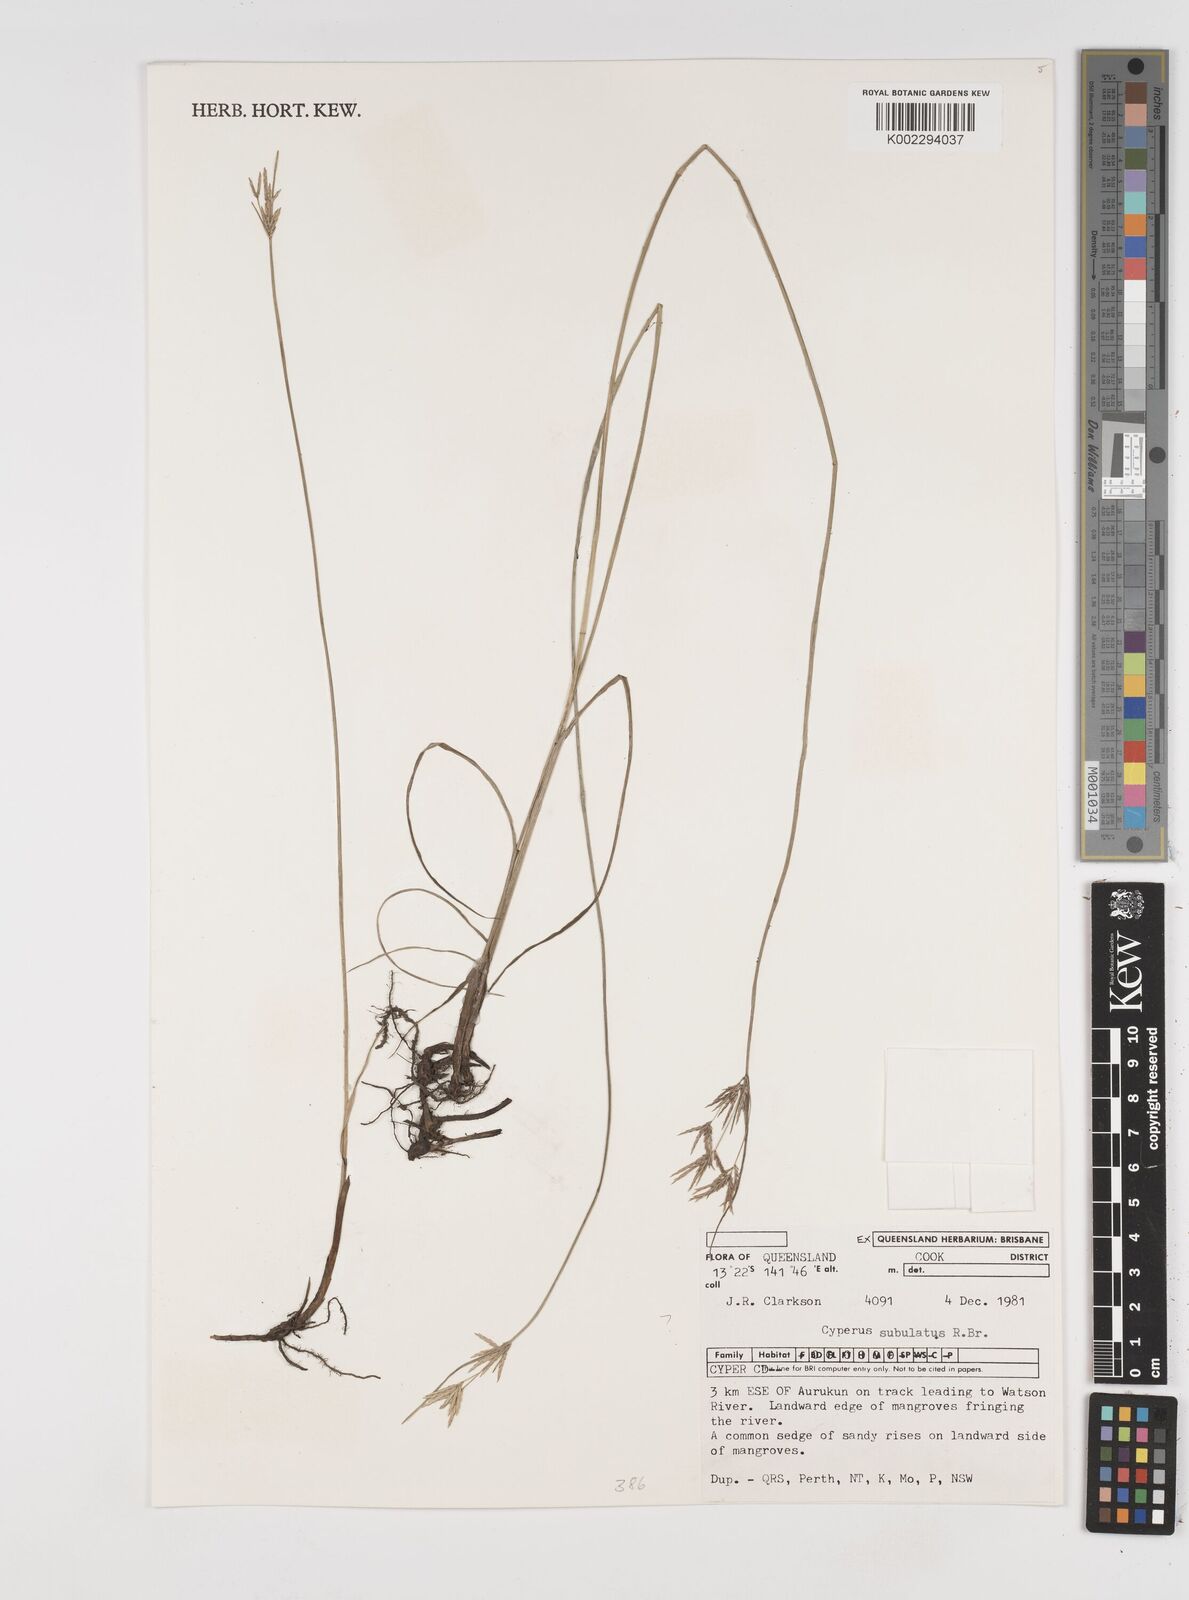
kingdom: Plantae
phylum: Tracheophyta
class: Liliopsida
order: Poales
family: Cyperaceae
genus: Cyperus
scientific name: Cyperus subulatus
